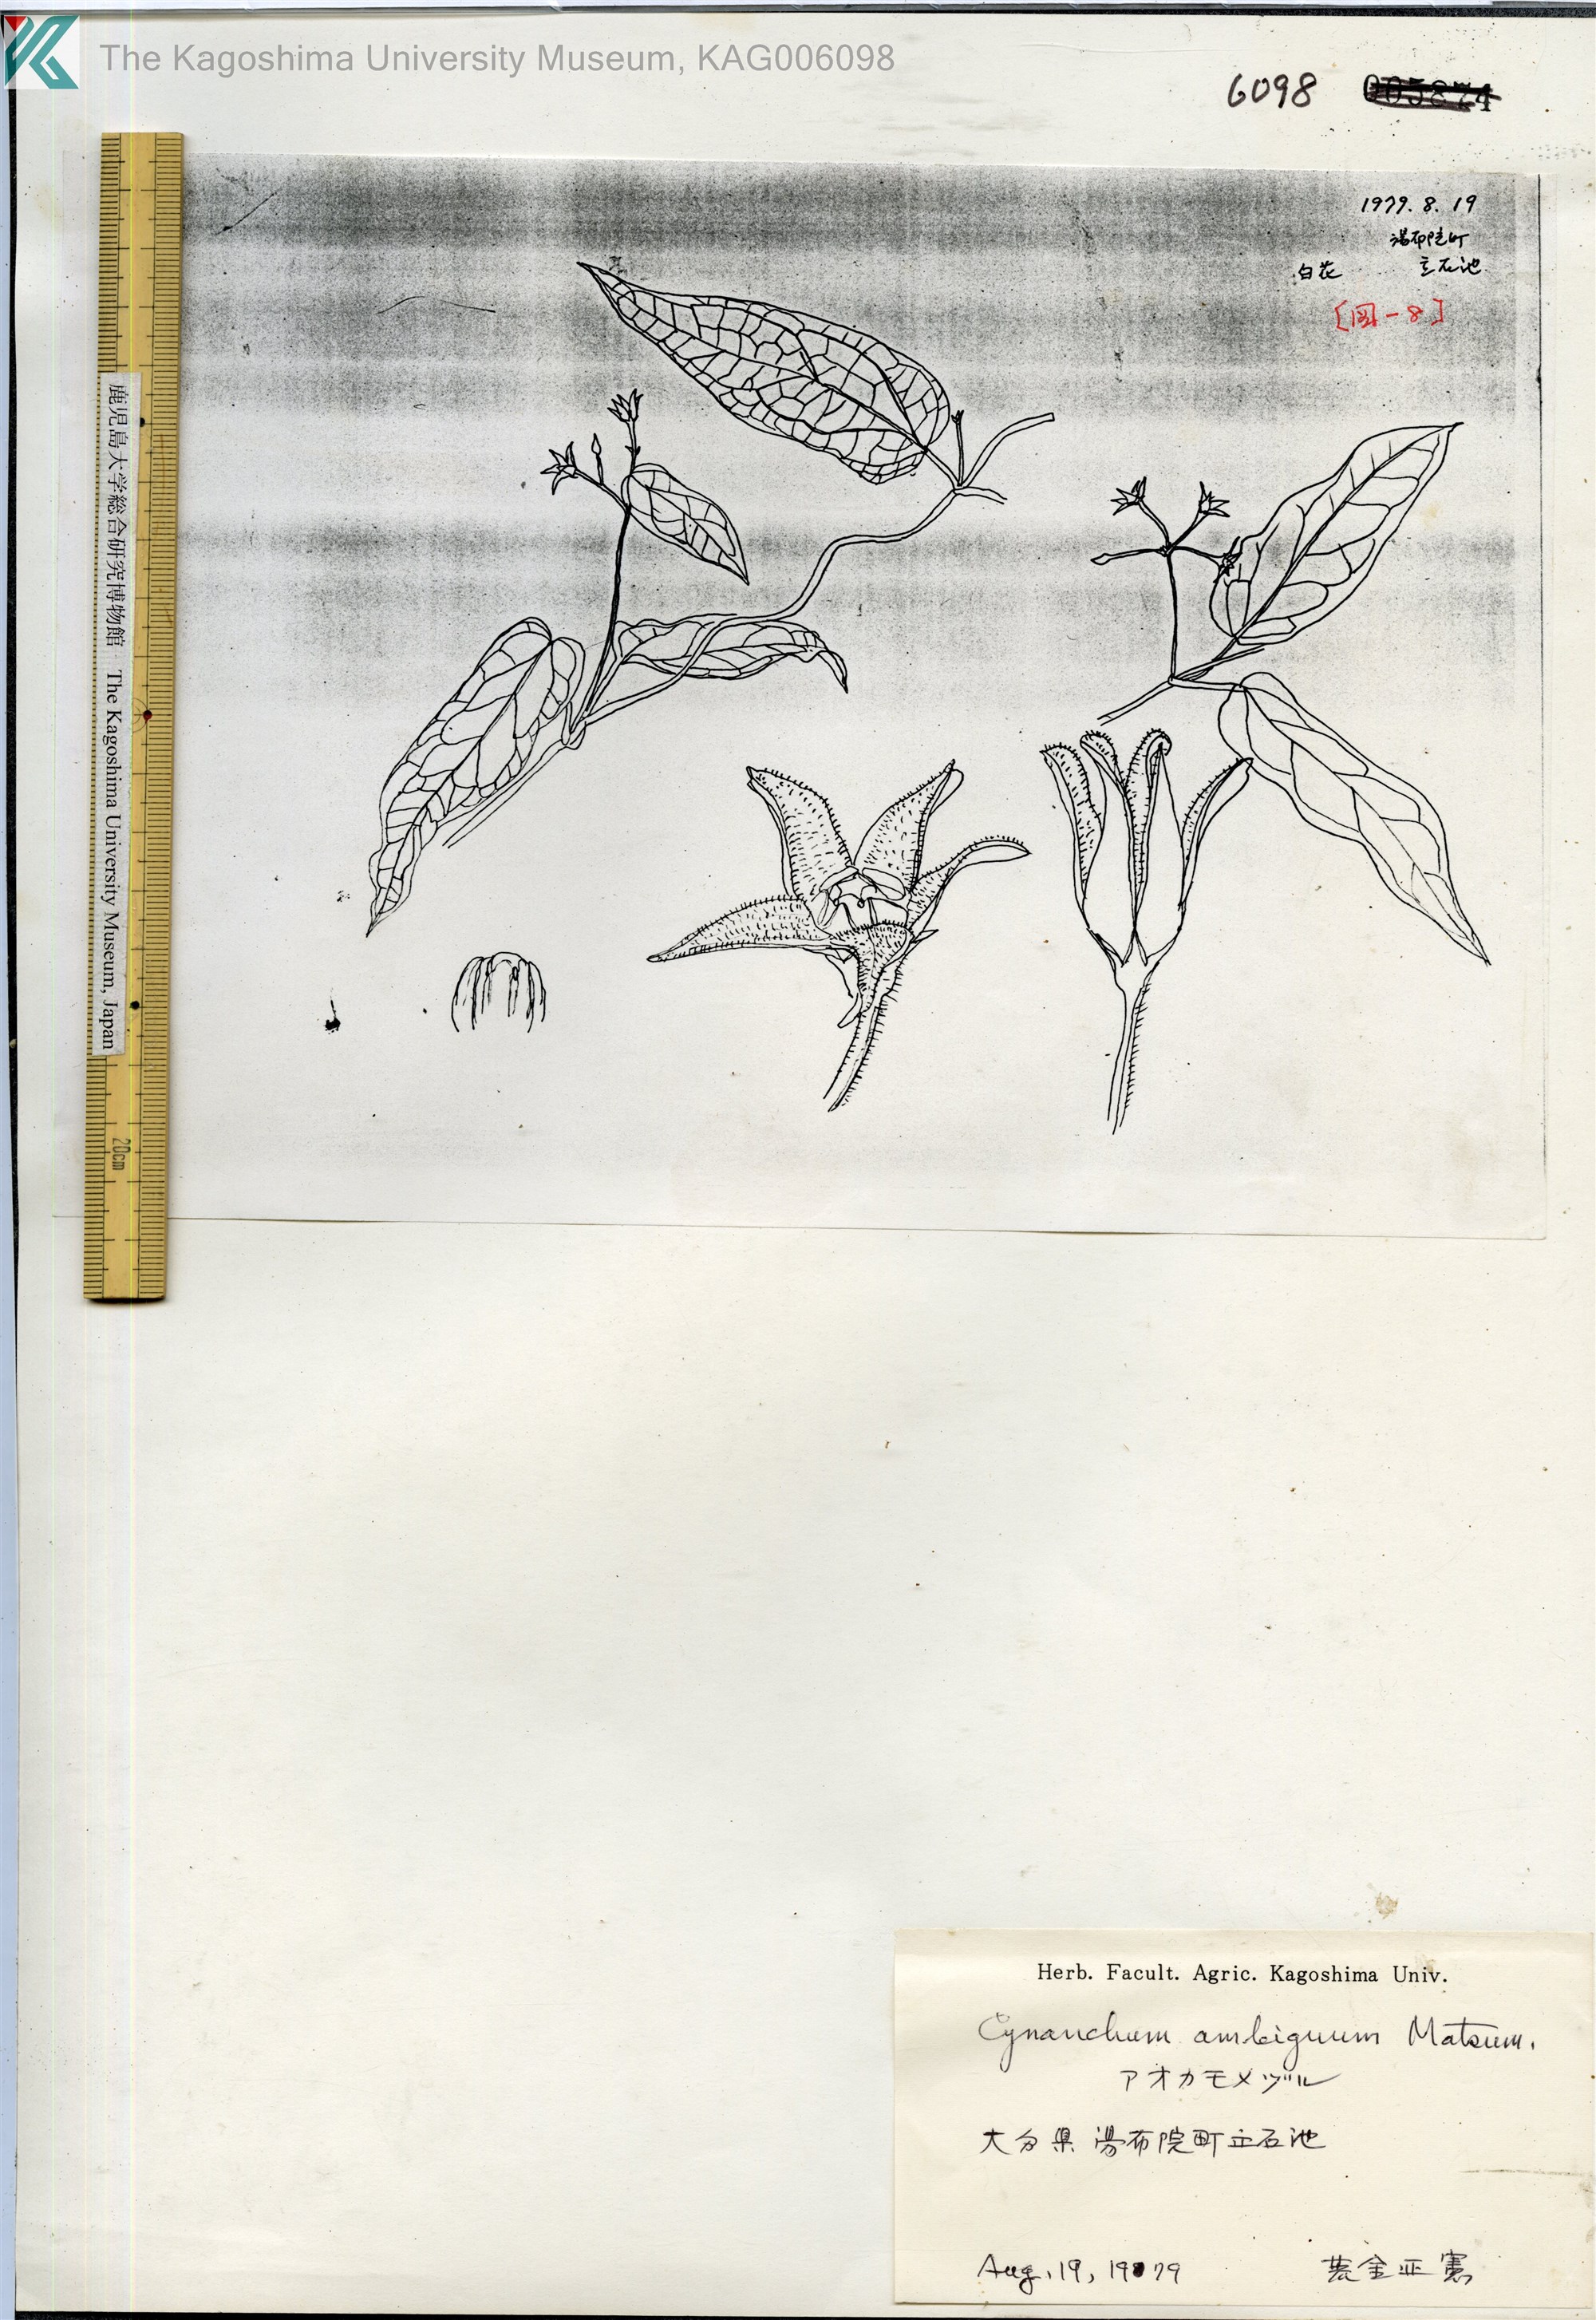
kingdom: Plantae
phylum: Tracheophyta
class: Magnoliopsida
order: Gentianales
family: Apocynaceae
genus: Vincetoxicum
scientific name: Vincetoxicum ambiguum
